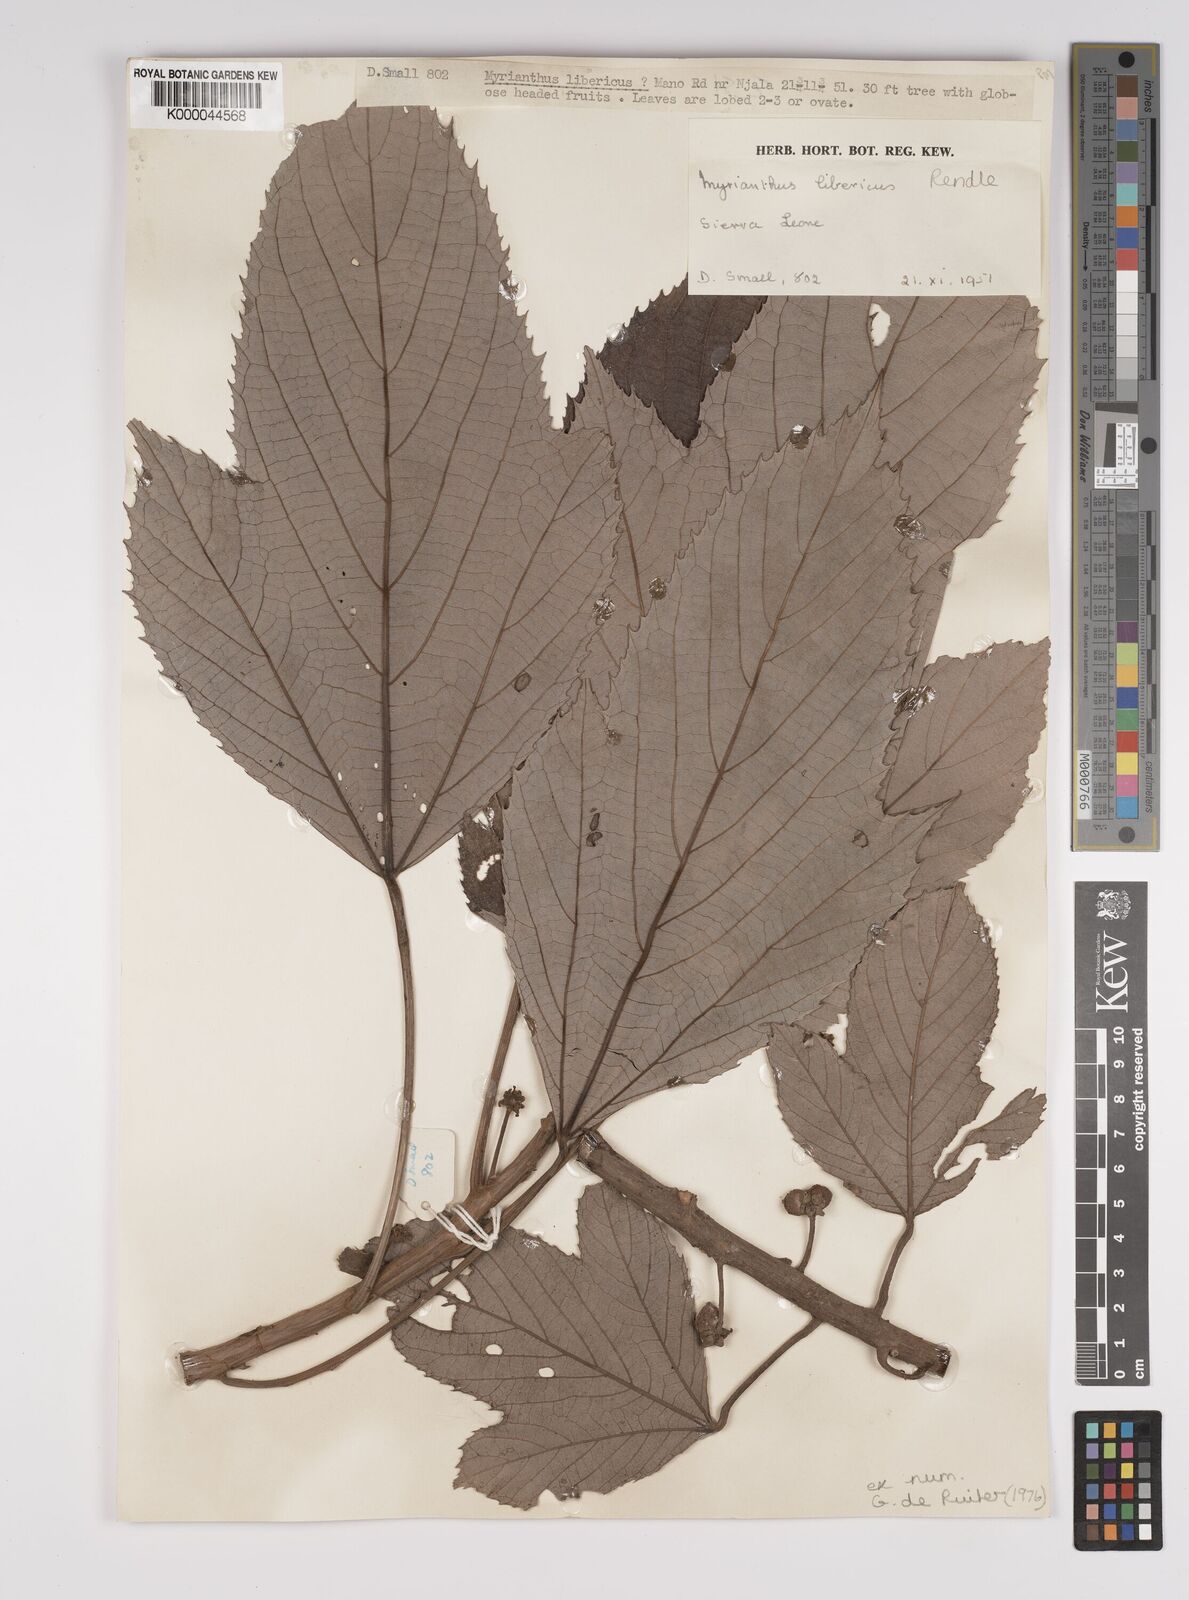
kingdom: Plantae
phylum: Tracheophyta
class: Magnoliopsida
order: Rosales
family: Urticaceae
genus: Myrianthus
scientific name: Myrianthus libericus
